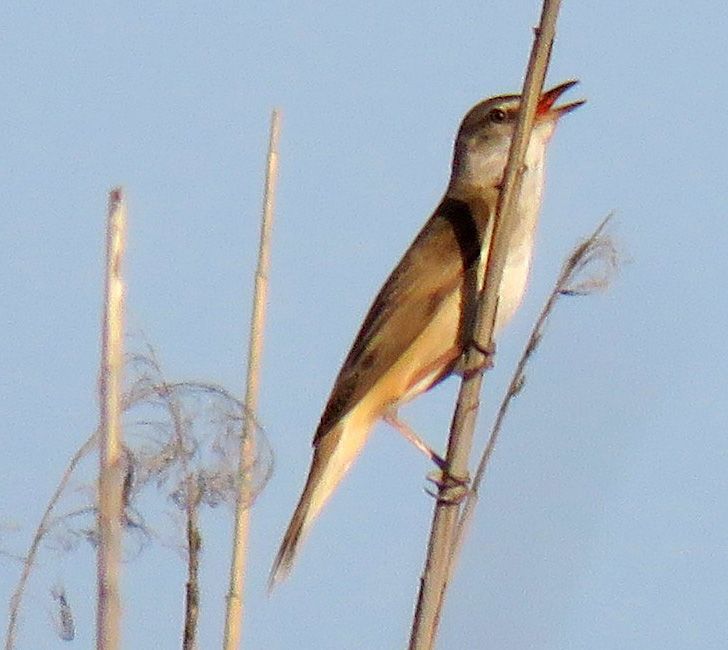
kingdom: Animalia
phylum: Chordata
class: Aves
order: Passeriformes
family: Acrocephalidae
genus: Acrocephalus
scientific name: Acrocephalus arundinaceus
